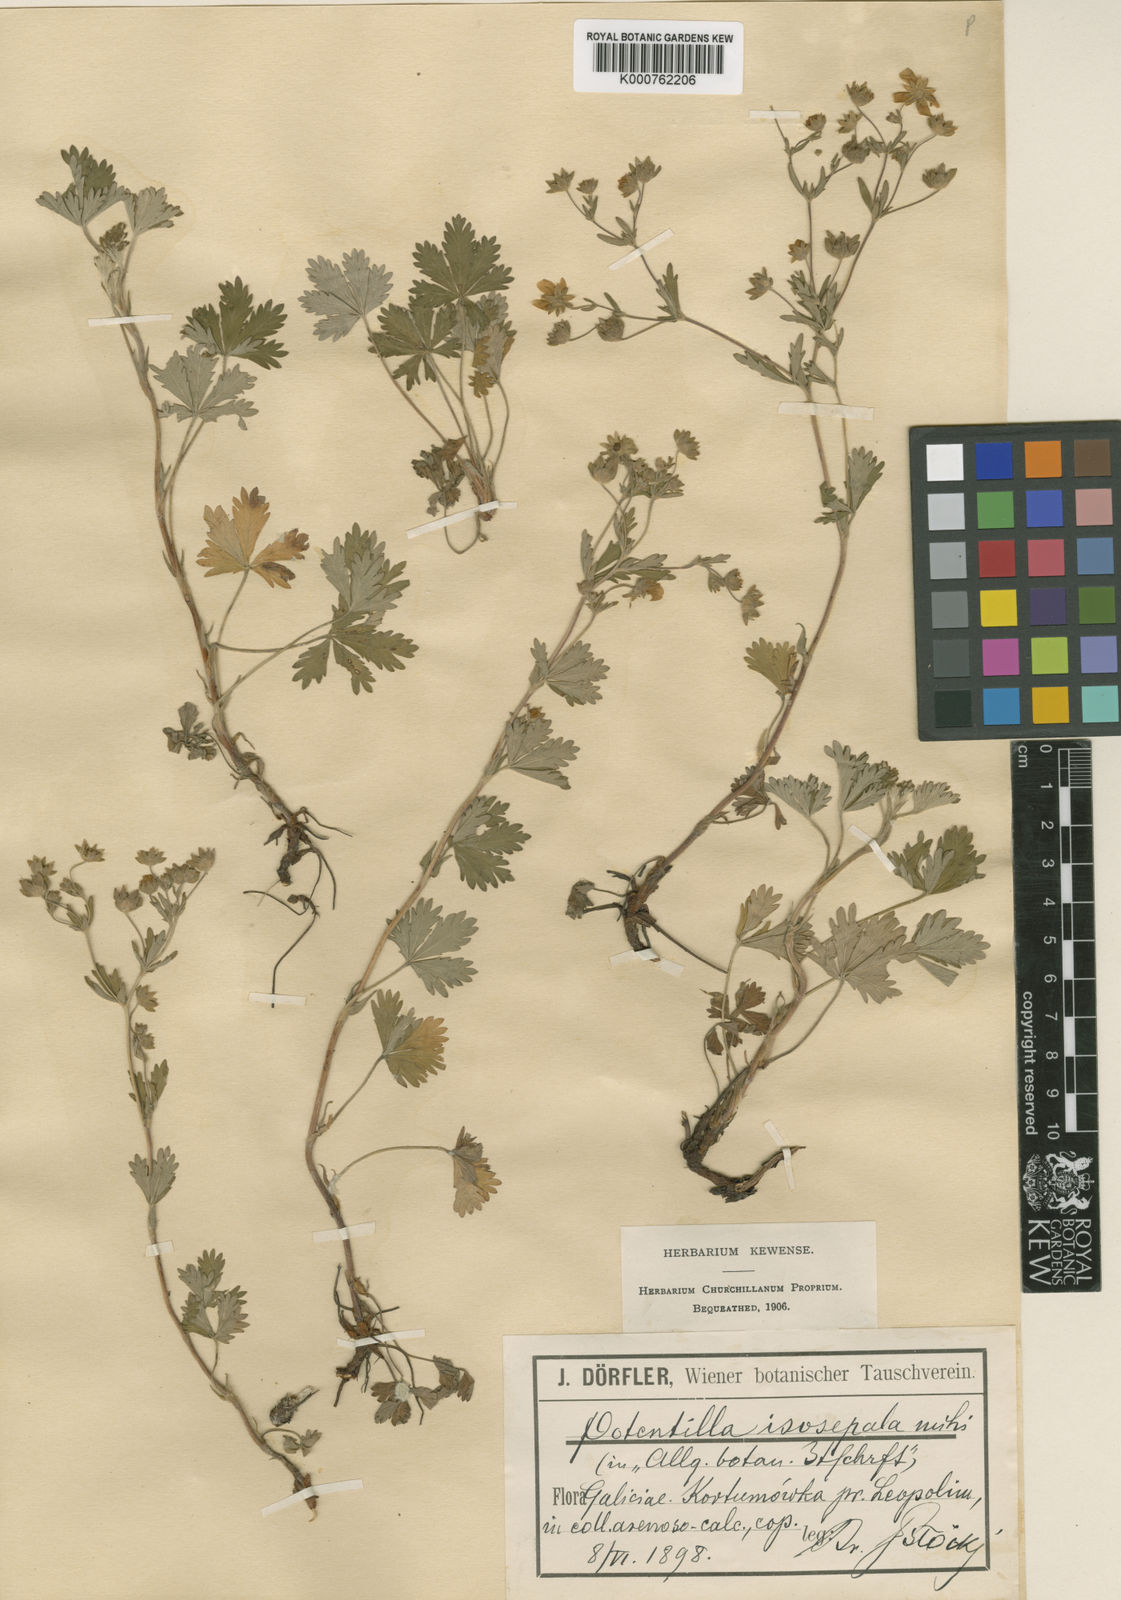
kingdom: Plantae
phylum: Tracheophyta
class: Magnoliopsida
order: Rosales
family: Rosaceae
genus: Potentilla
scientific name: Potentilla
